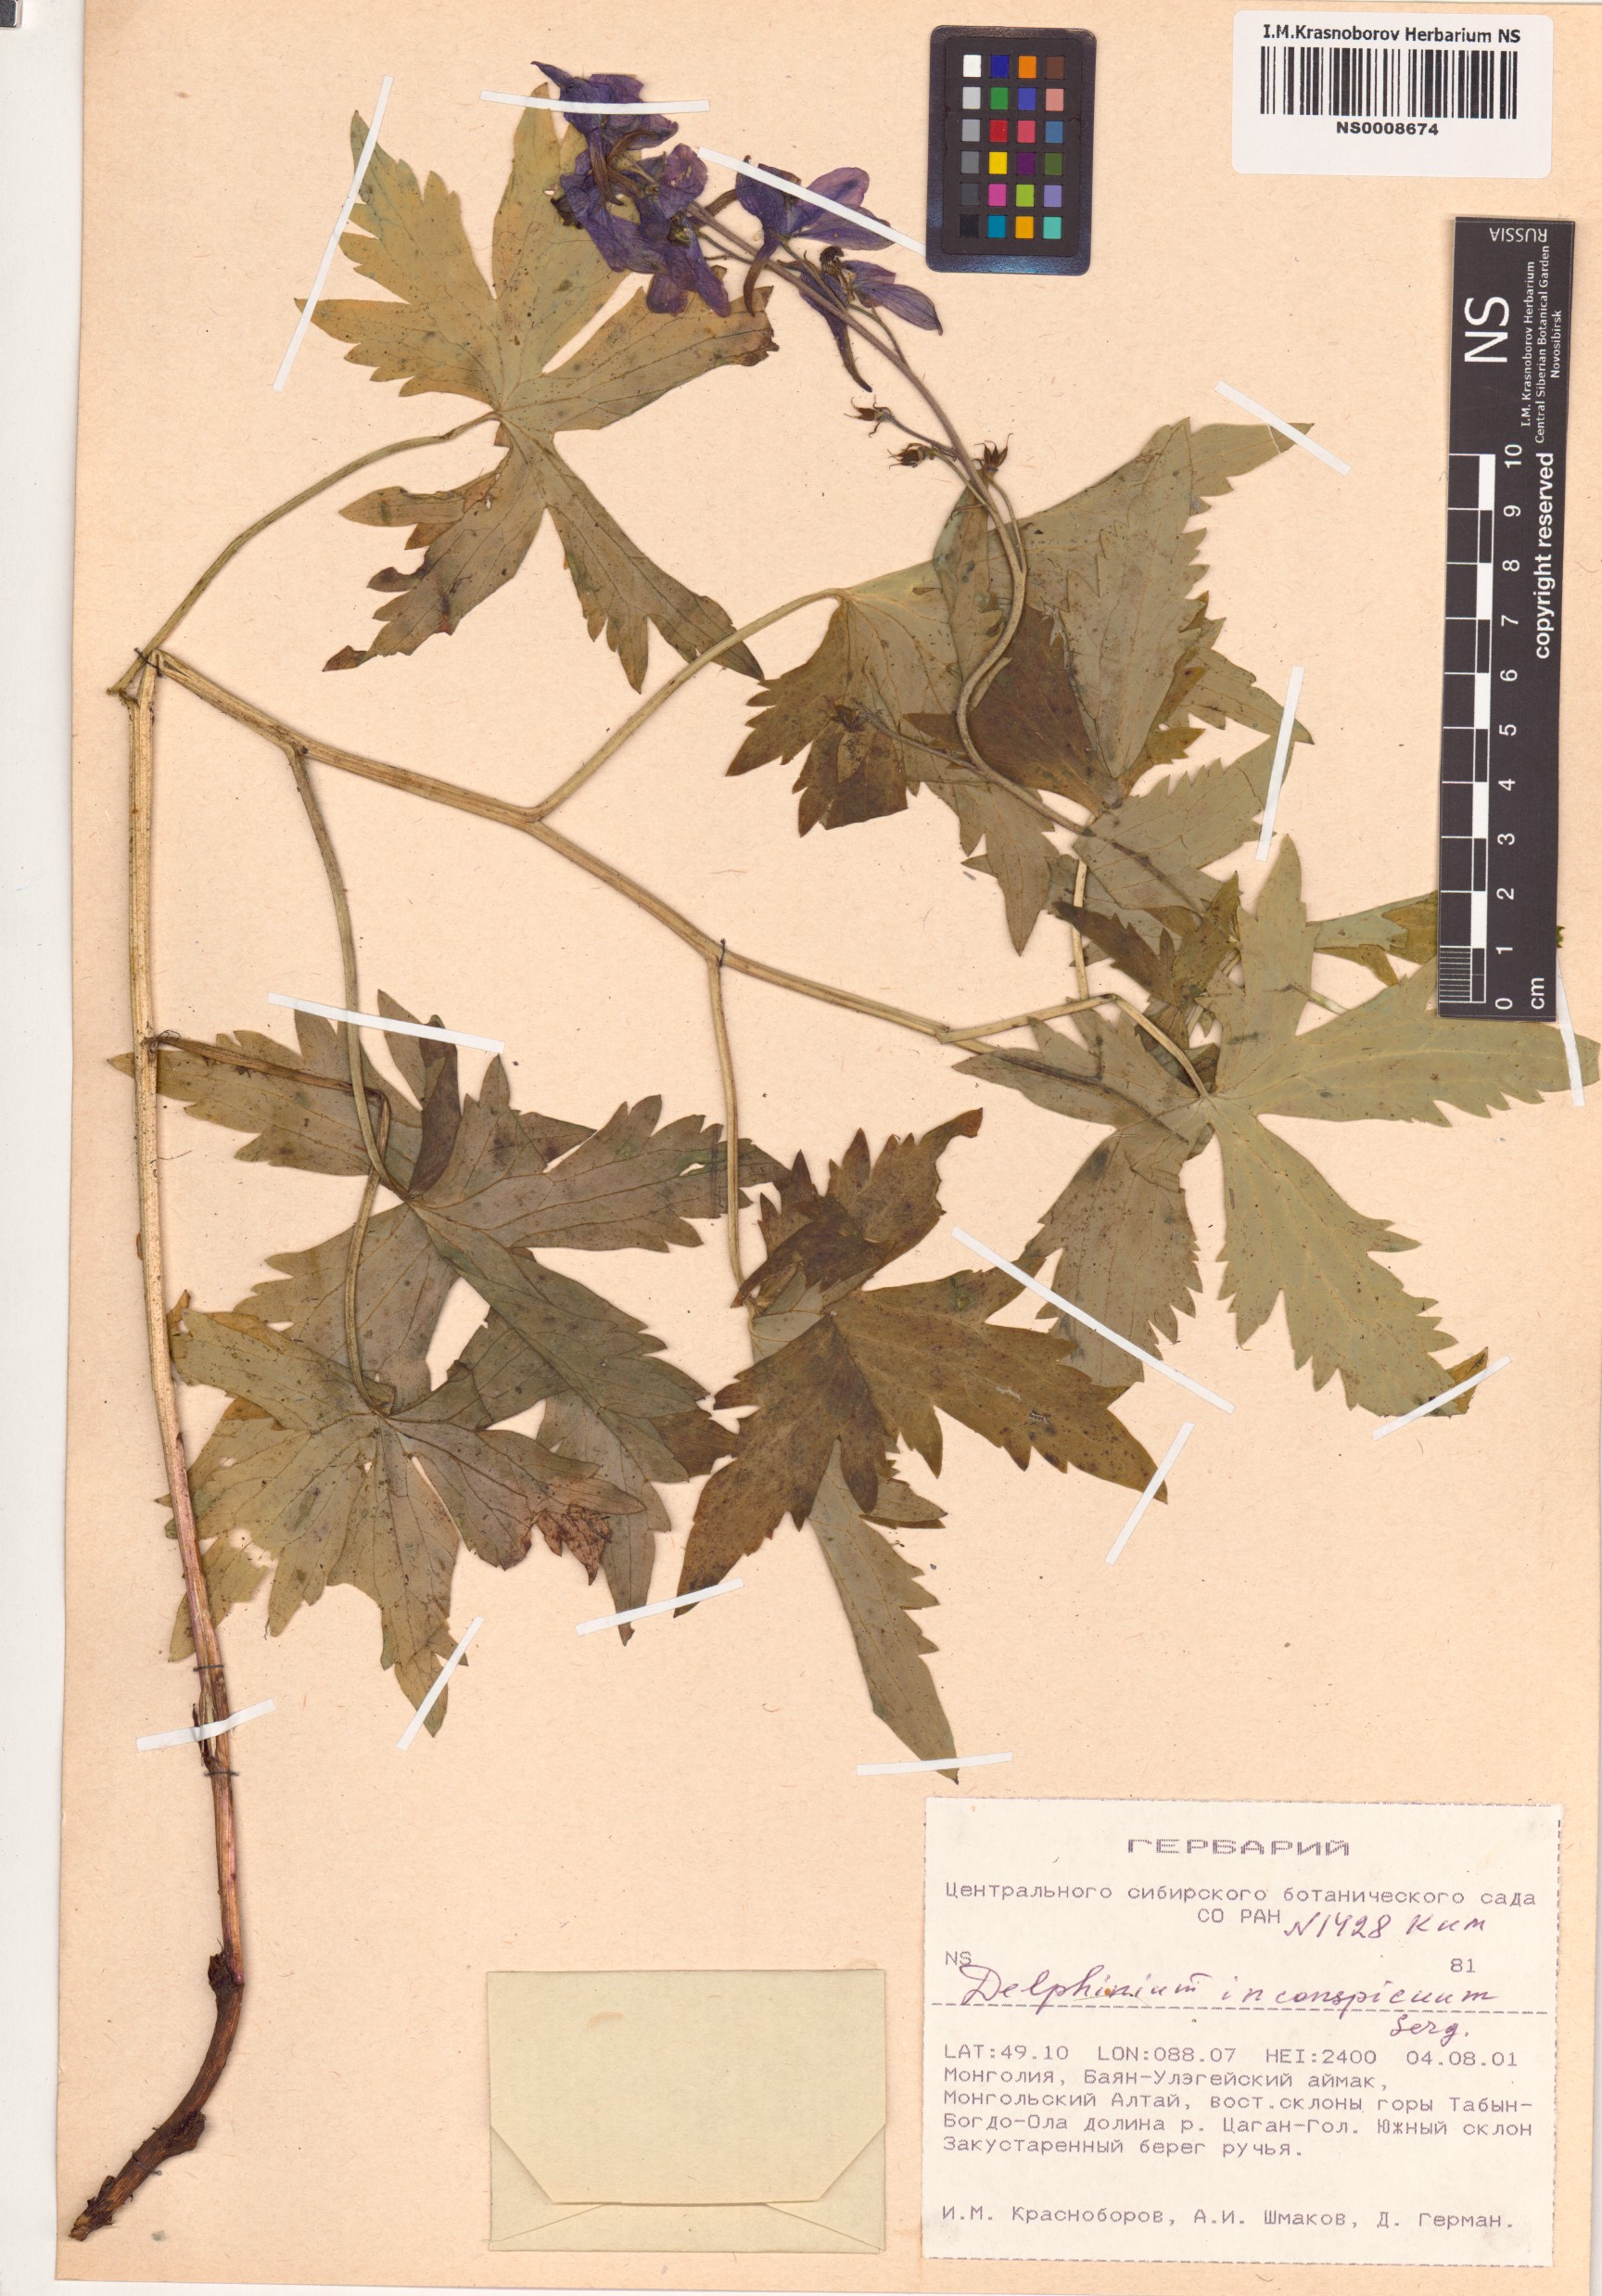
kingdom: Plantae
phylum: Tracheophyta
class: Magnoliopsida
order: Ranunculales
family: Ranunculaceae
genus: Delphinium
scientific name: Delphinium inconspicuum
